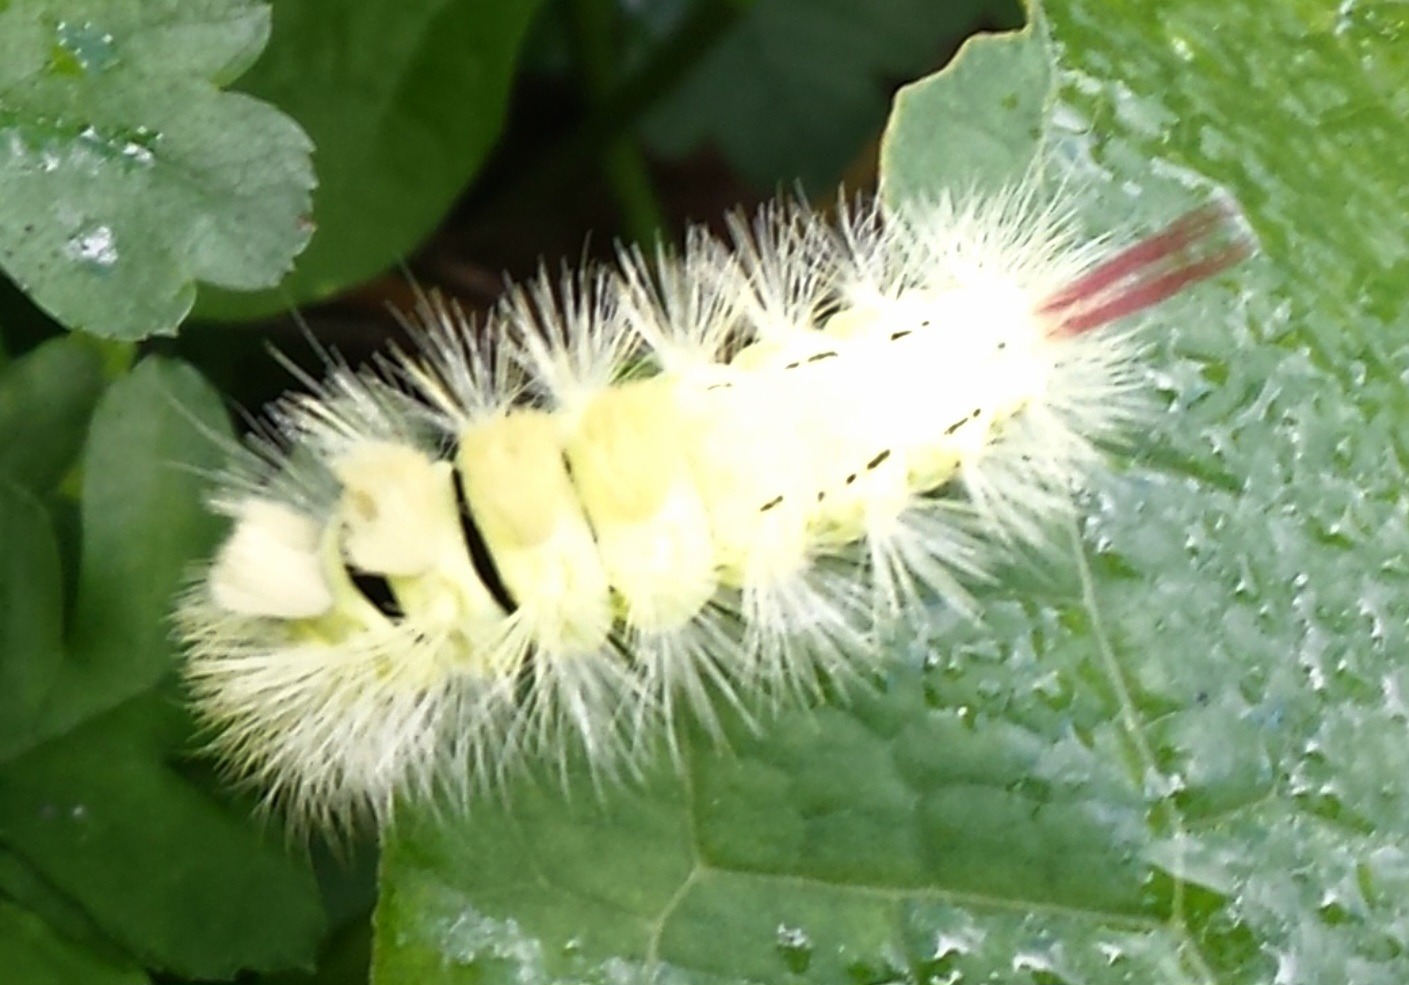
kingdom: Animalia
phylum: Arthropoda
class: Insecta
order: Lepidoptera
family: Erebidae
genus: Calliteara
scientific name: Calliteara pudibunda
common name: Bøgenonne
